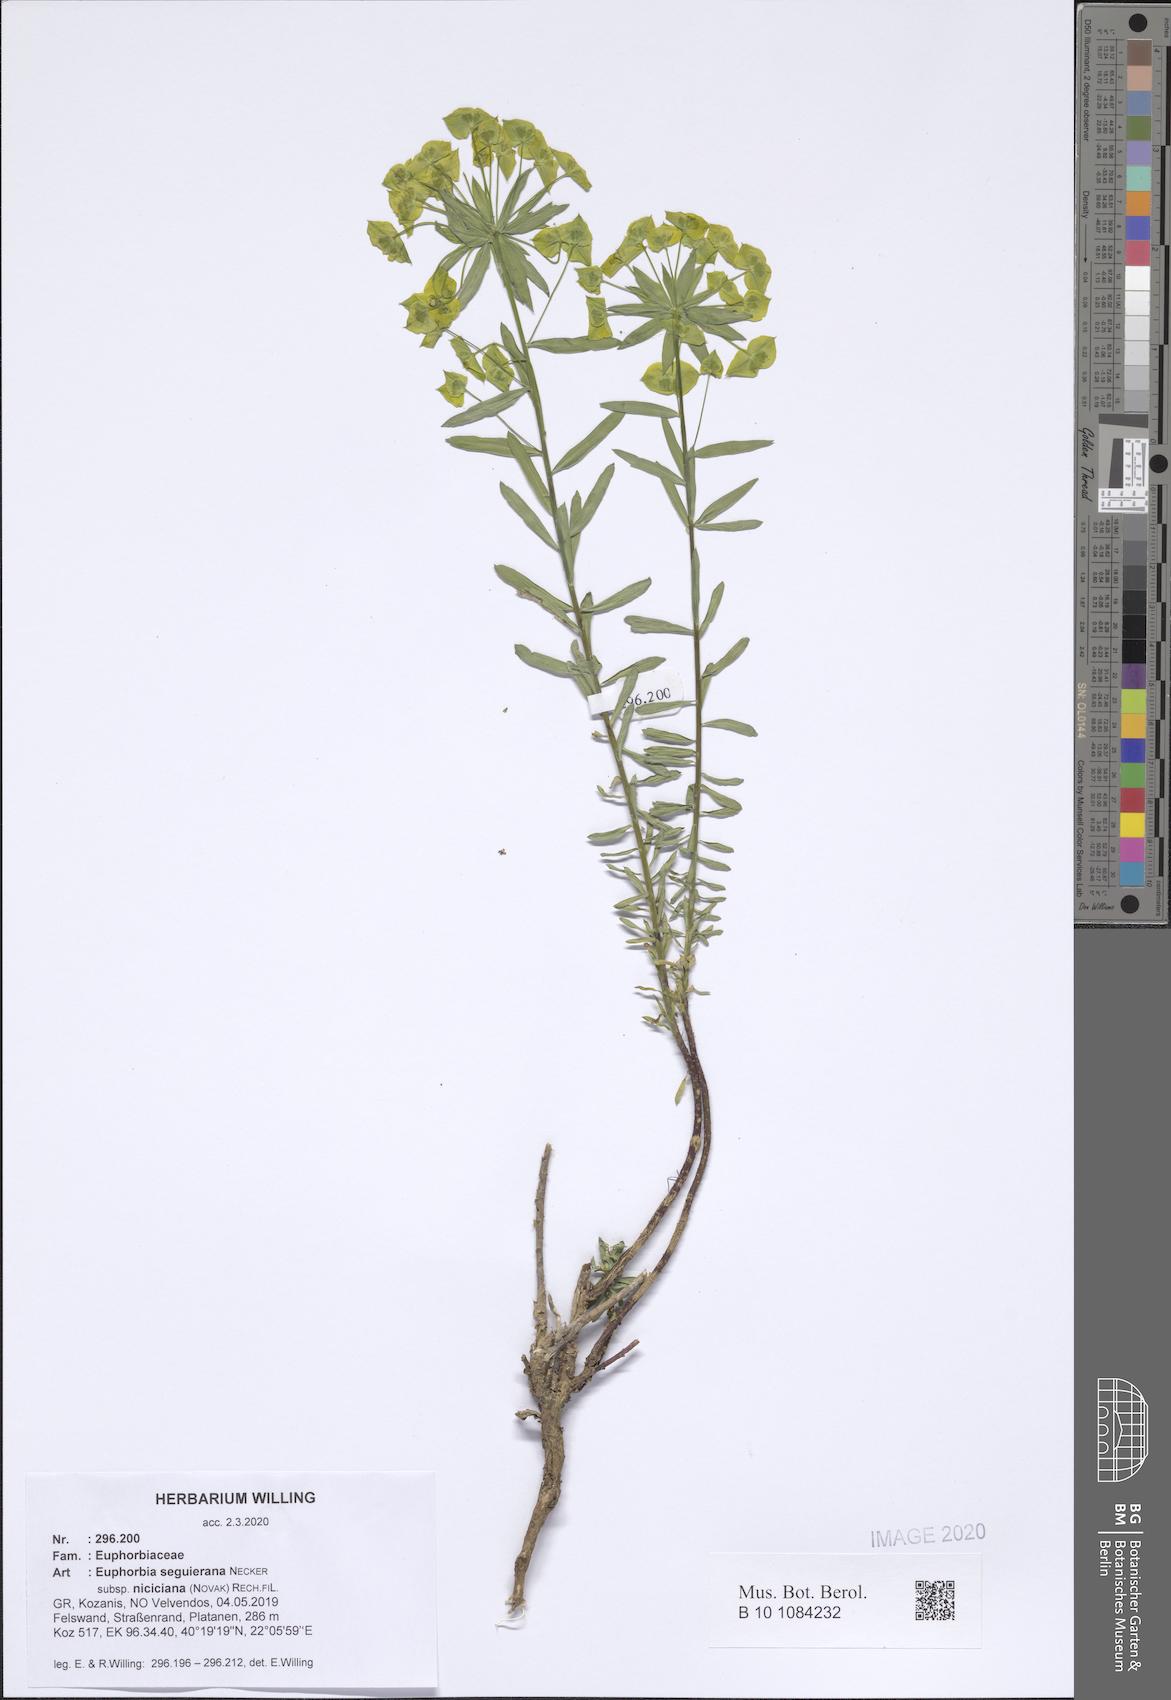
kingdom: Plantae
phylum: Tracheophyta
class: Magnoliopsida
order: Malpighiales
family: Euphorbiaceae
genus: Euphorbia
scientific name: Euphorbia seguieriana
